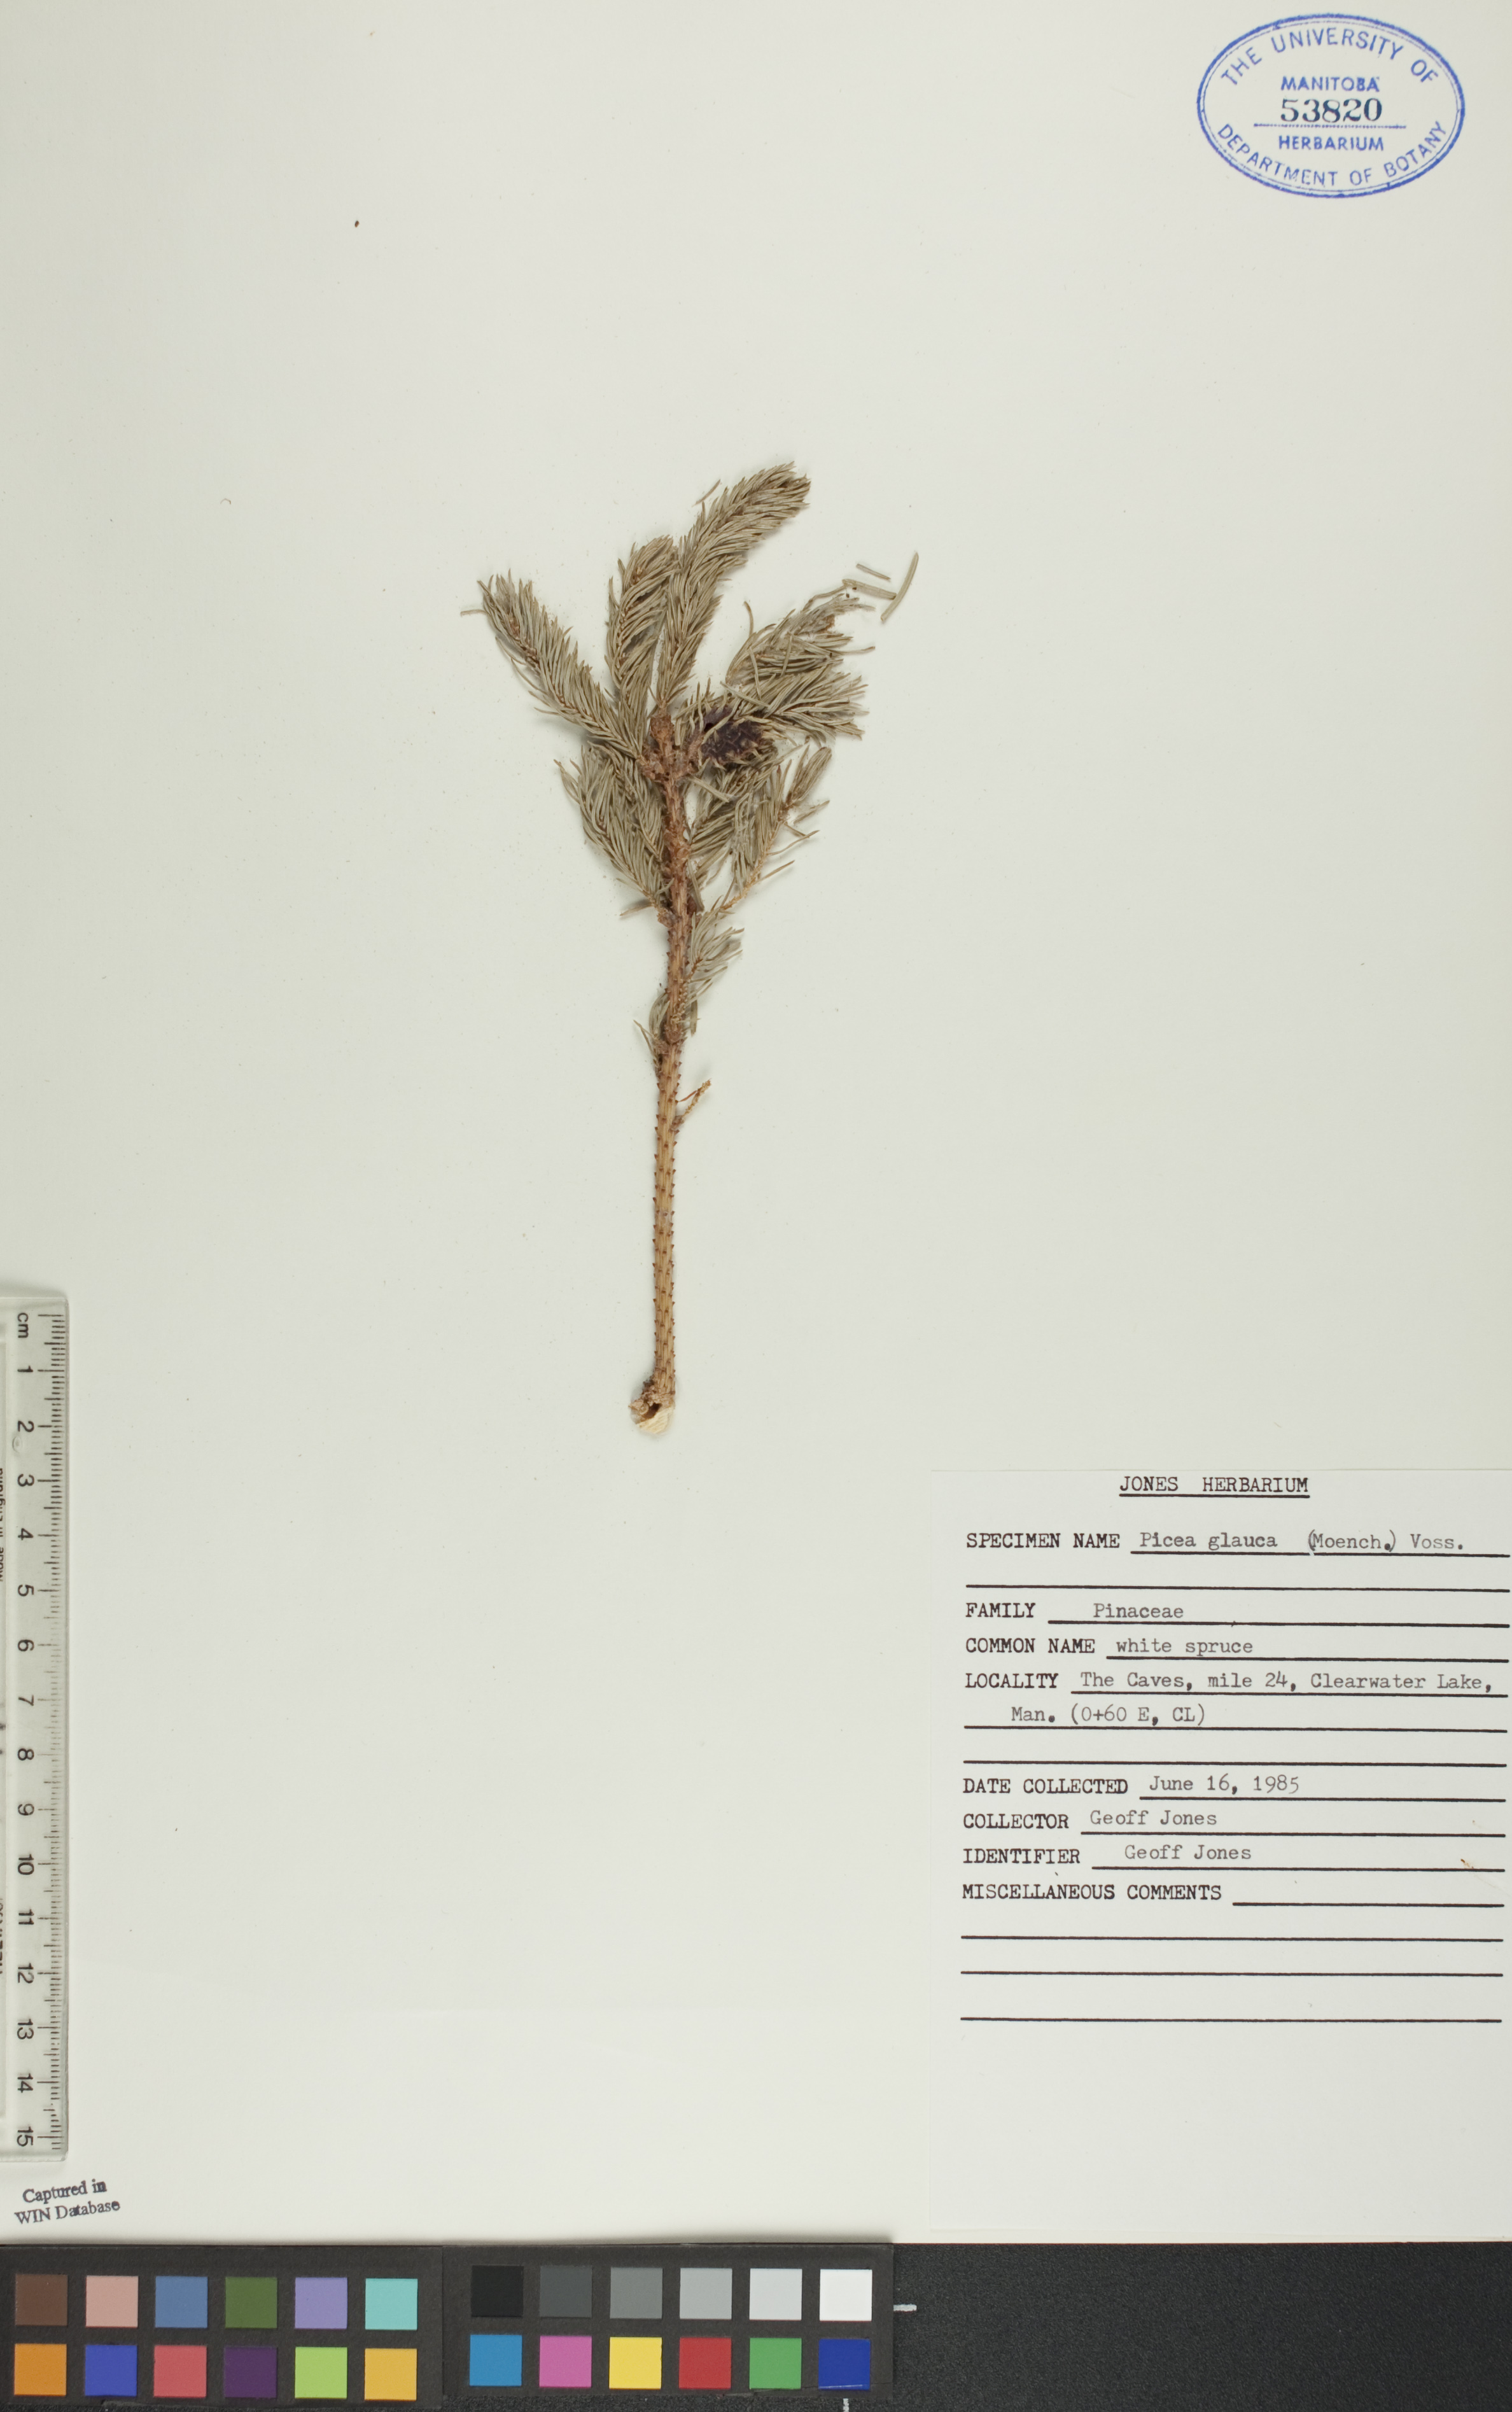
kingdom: Plantae
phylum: Tracheophyta
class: Pinopsida
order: Pinales
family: Pinaceae
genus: Picea
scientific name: Picea glauca
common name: White spruce
